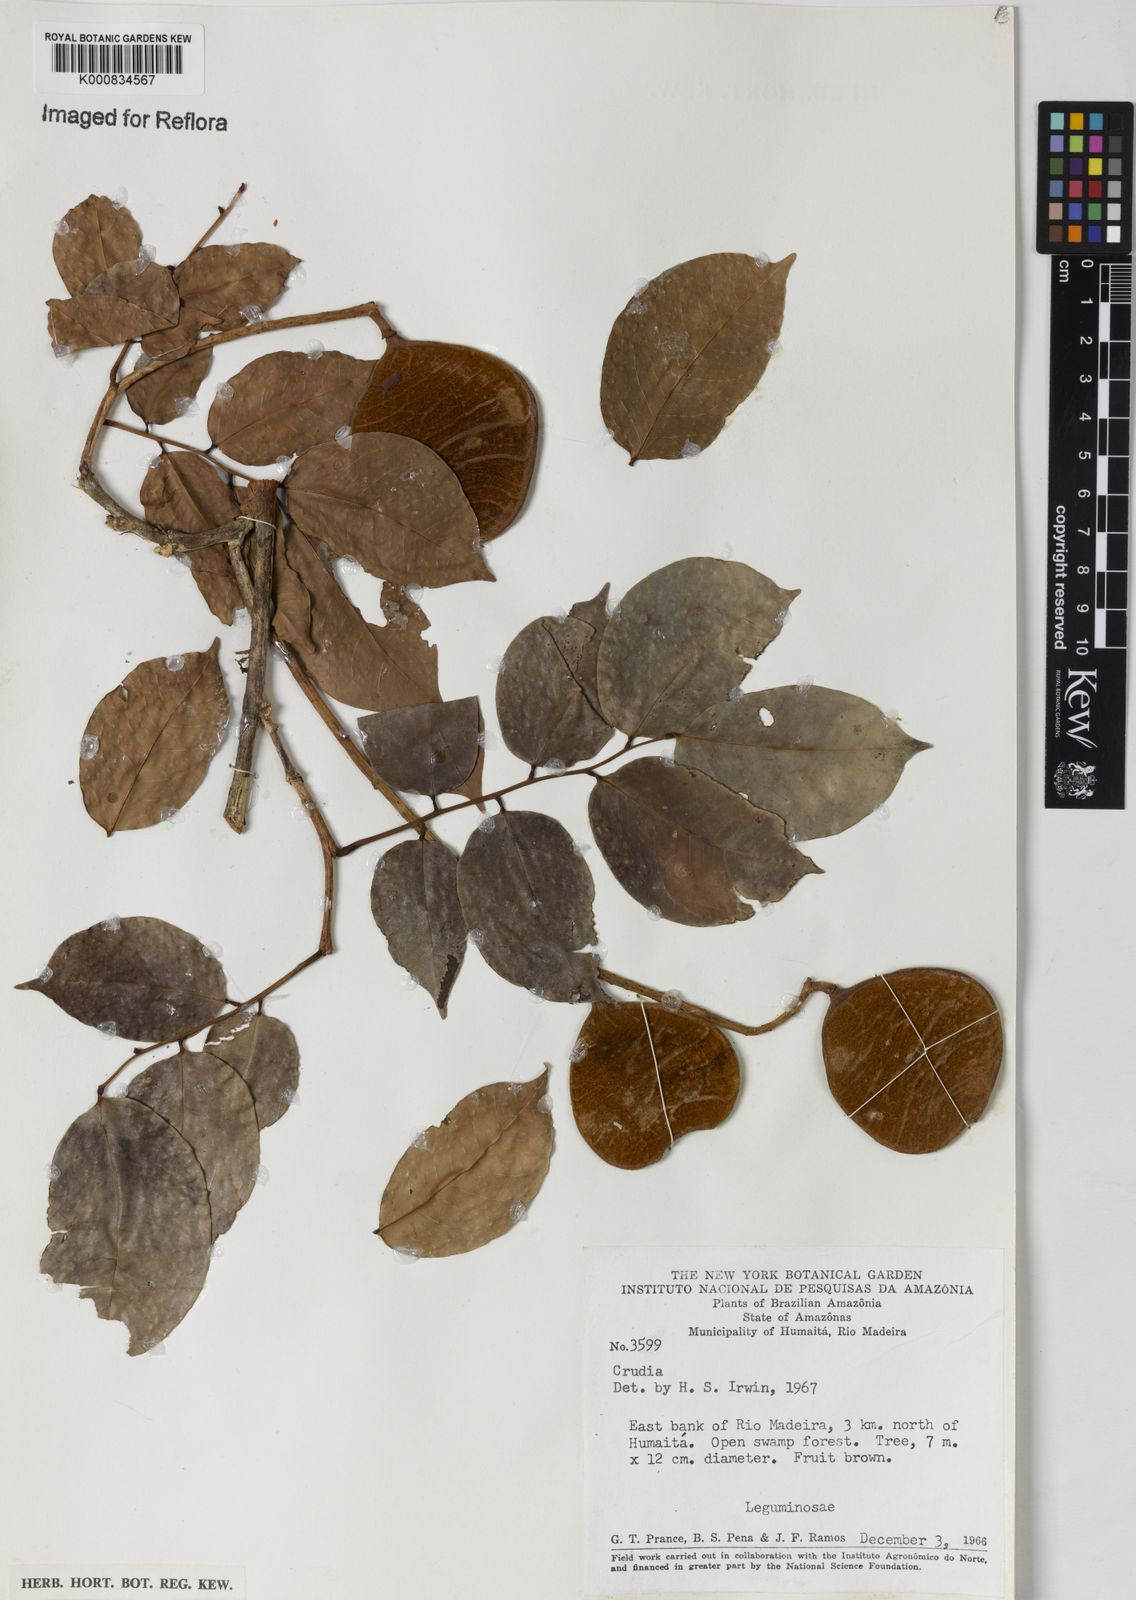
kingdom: Plantae
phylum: Tracheophyta
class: Magnoliopsida
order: Fabales
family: Fabaceae
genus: Crudia
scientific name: Crudia
